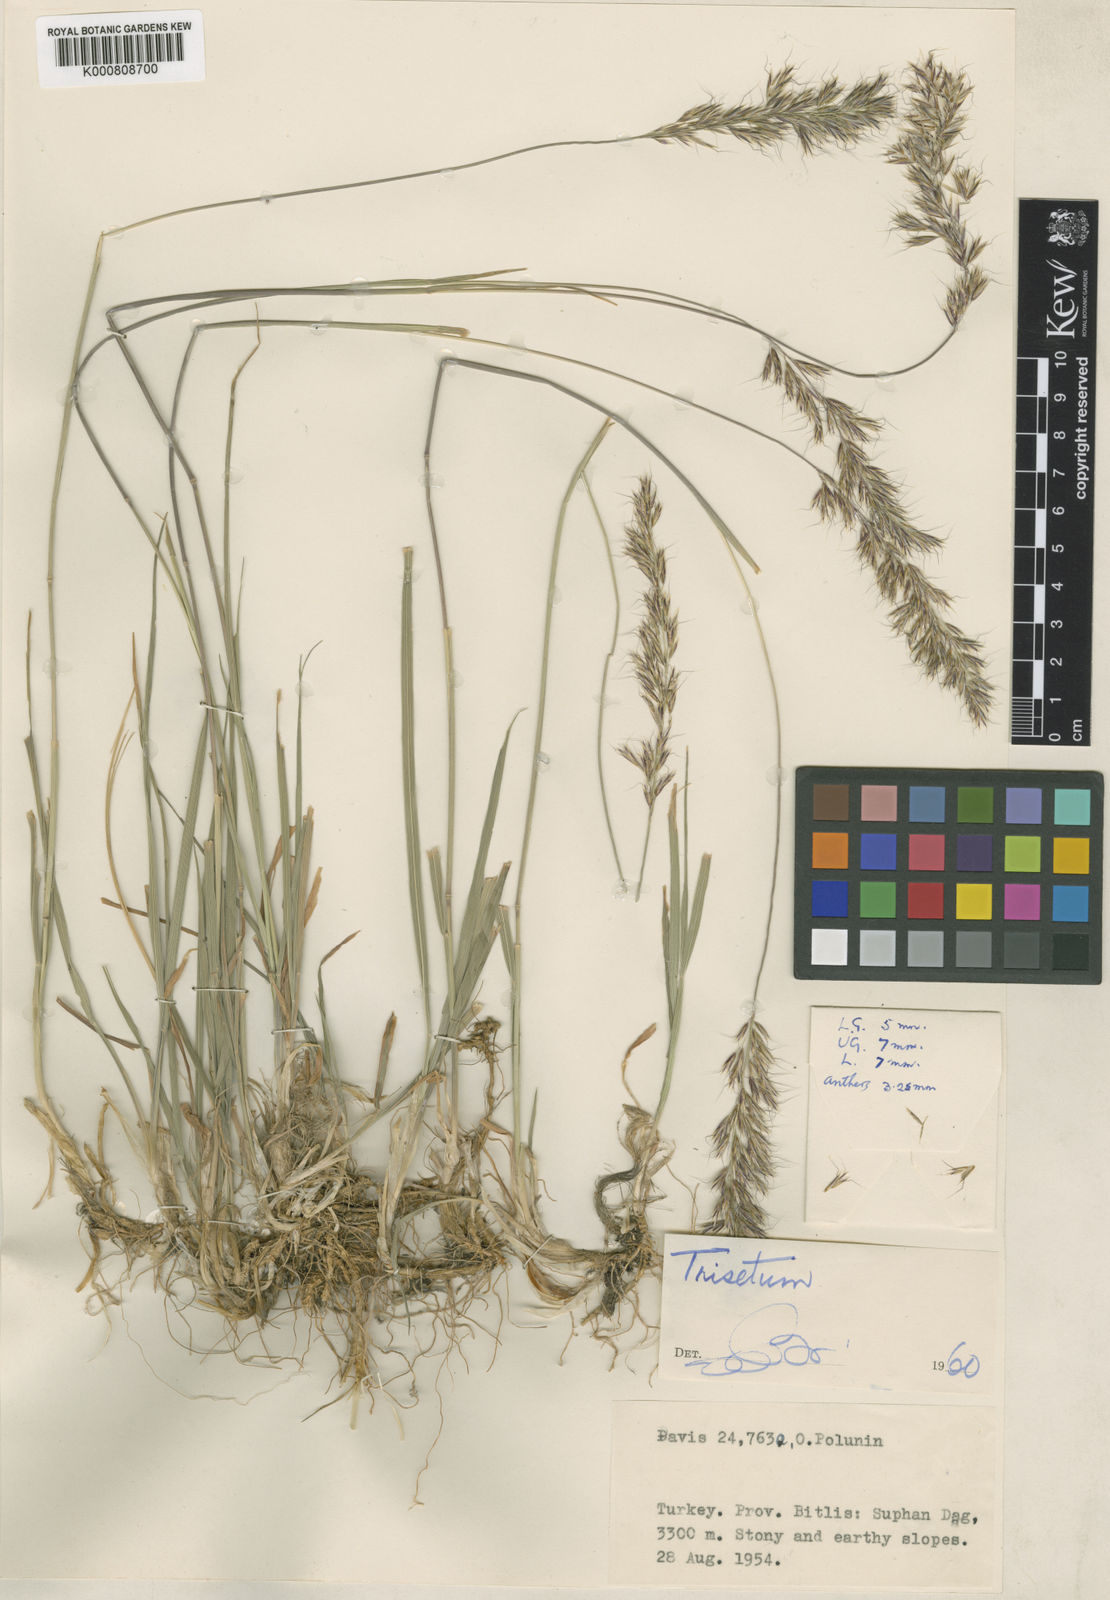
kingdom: Plantae
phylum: Tracheophyta
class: Liliopsida
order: Poales
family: Poaceae
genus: Sibirotrisetum
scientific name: Sibirotrisetum turcicum
